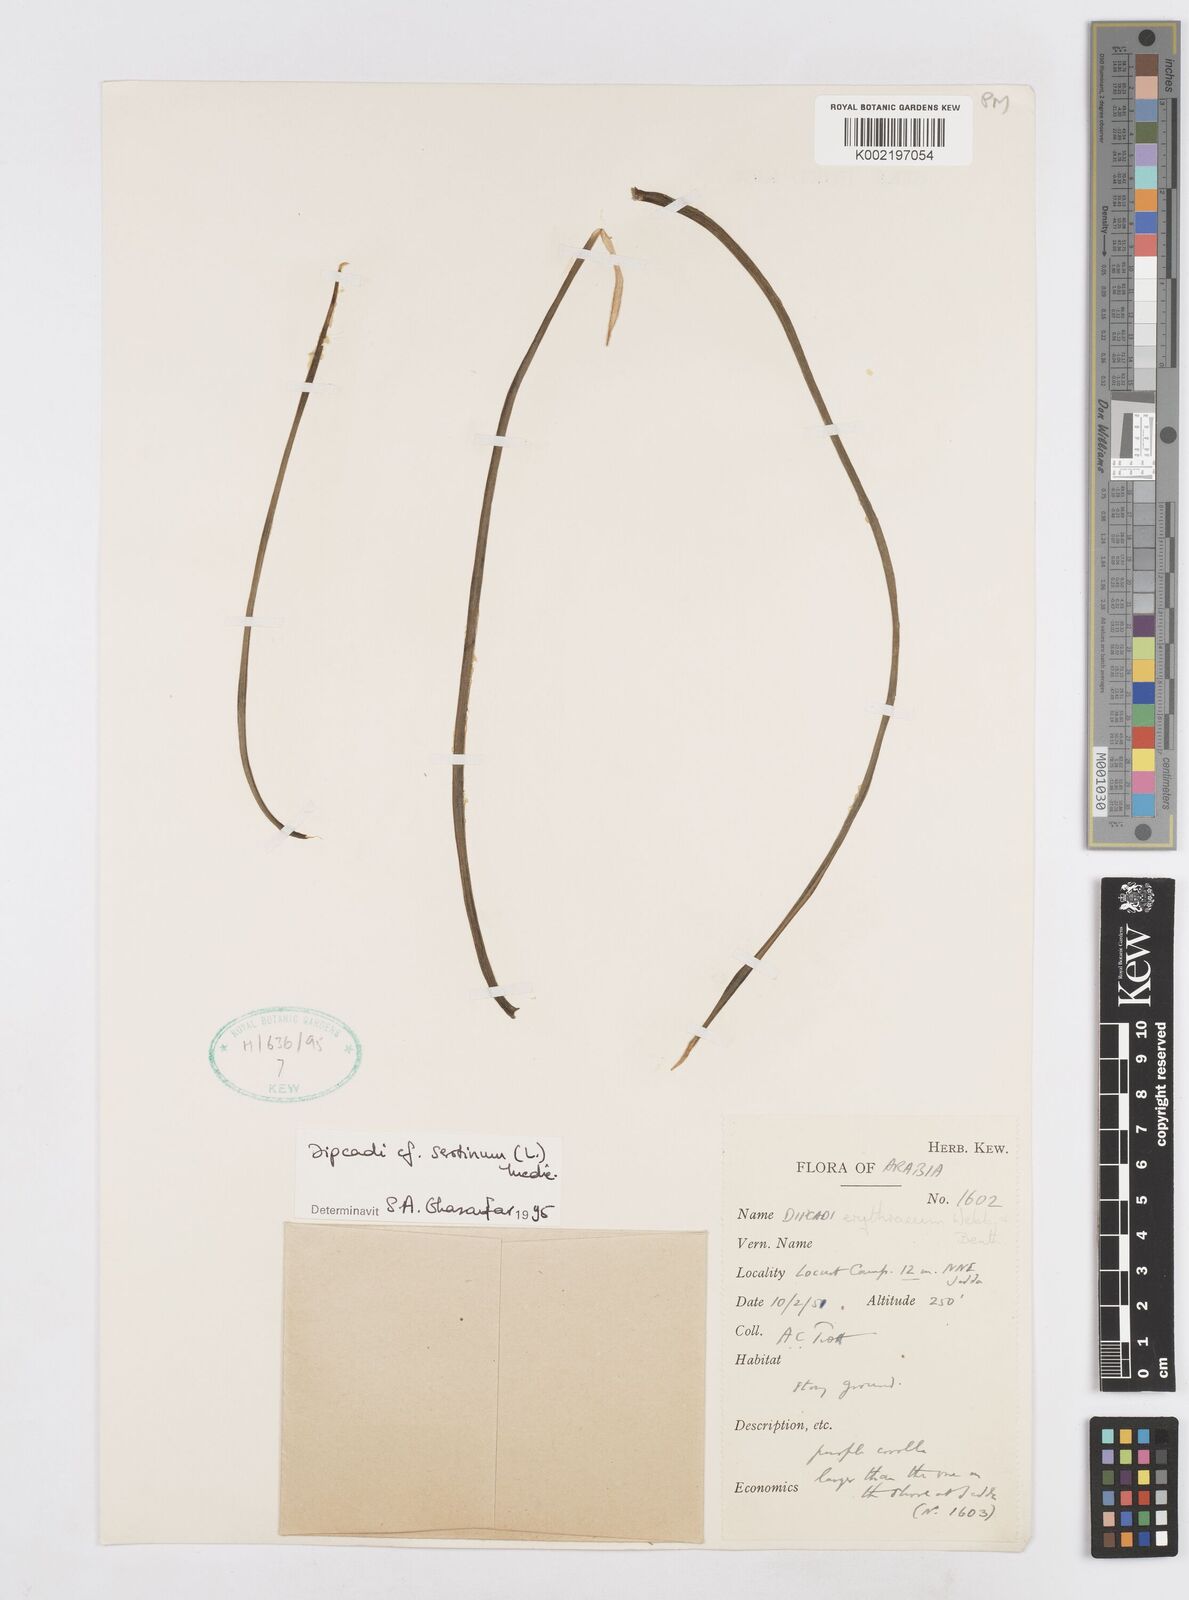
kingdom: Plantae
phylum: Tracheophyta
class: Liliopsida
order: Asparagales
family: Asparagaceae
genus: Dipcadi
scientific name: Dipcadi serotinum
